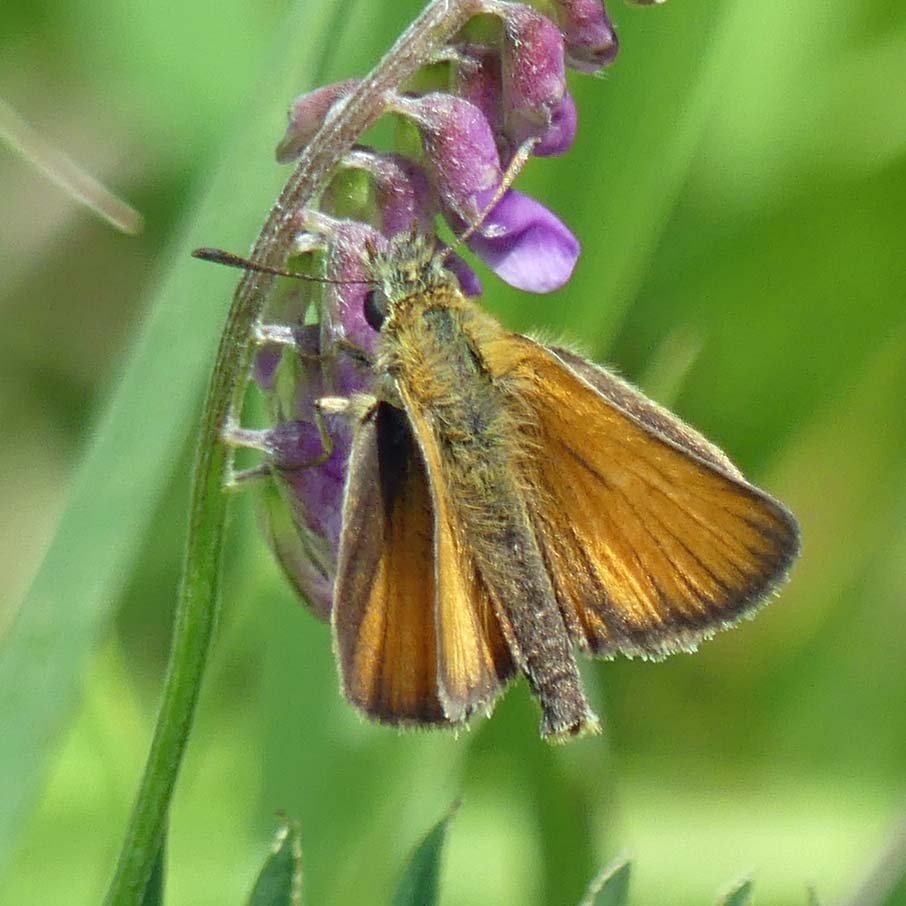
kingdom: Animalia
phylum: Arthropoda
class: Insecta
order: Lepidoptera
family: Hesperiidae
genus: Thymelicus
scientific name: Thymelicus lineola
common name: European Skipper
